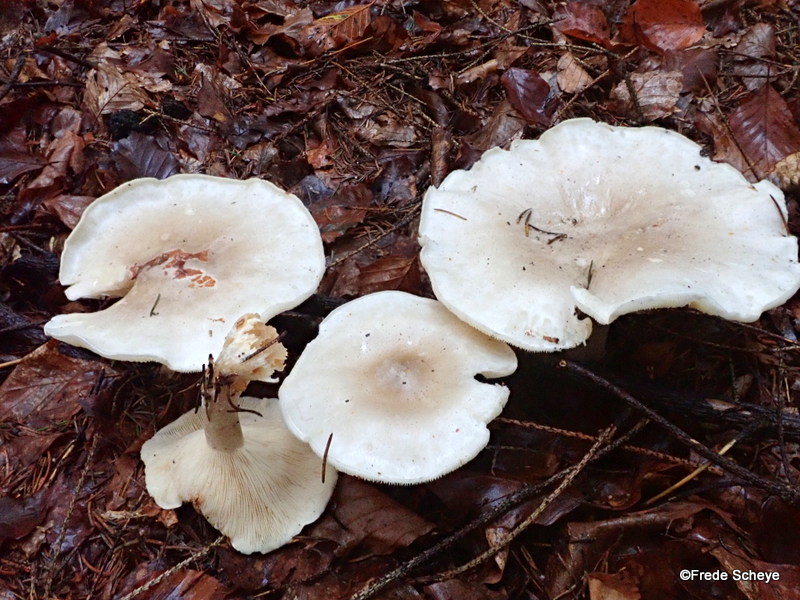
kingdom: Fungi
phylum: Basidiomycota
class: Agaricomycetes
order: Agaricales
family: Tricholomataceae
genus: Clitocybe
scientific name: Clitocybe nebularis
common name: tåge-tragthat
